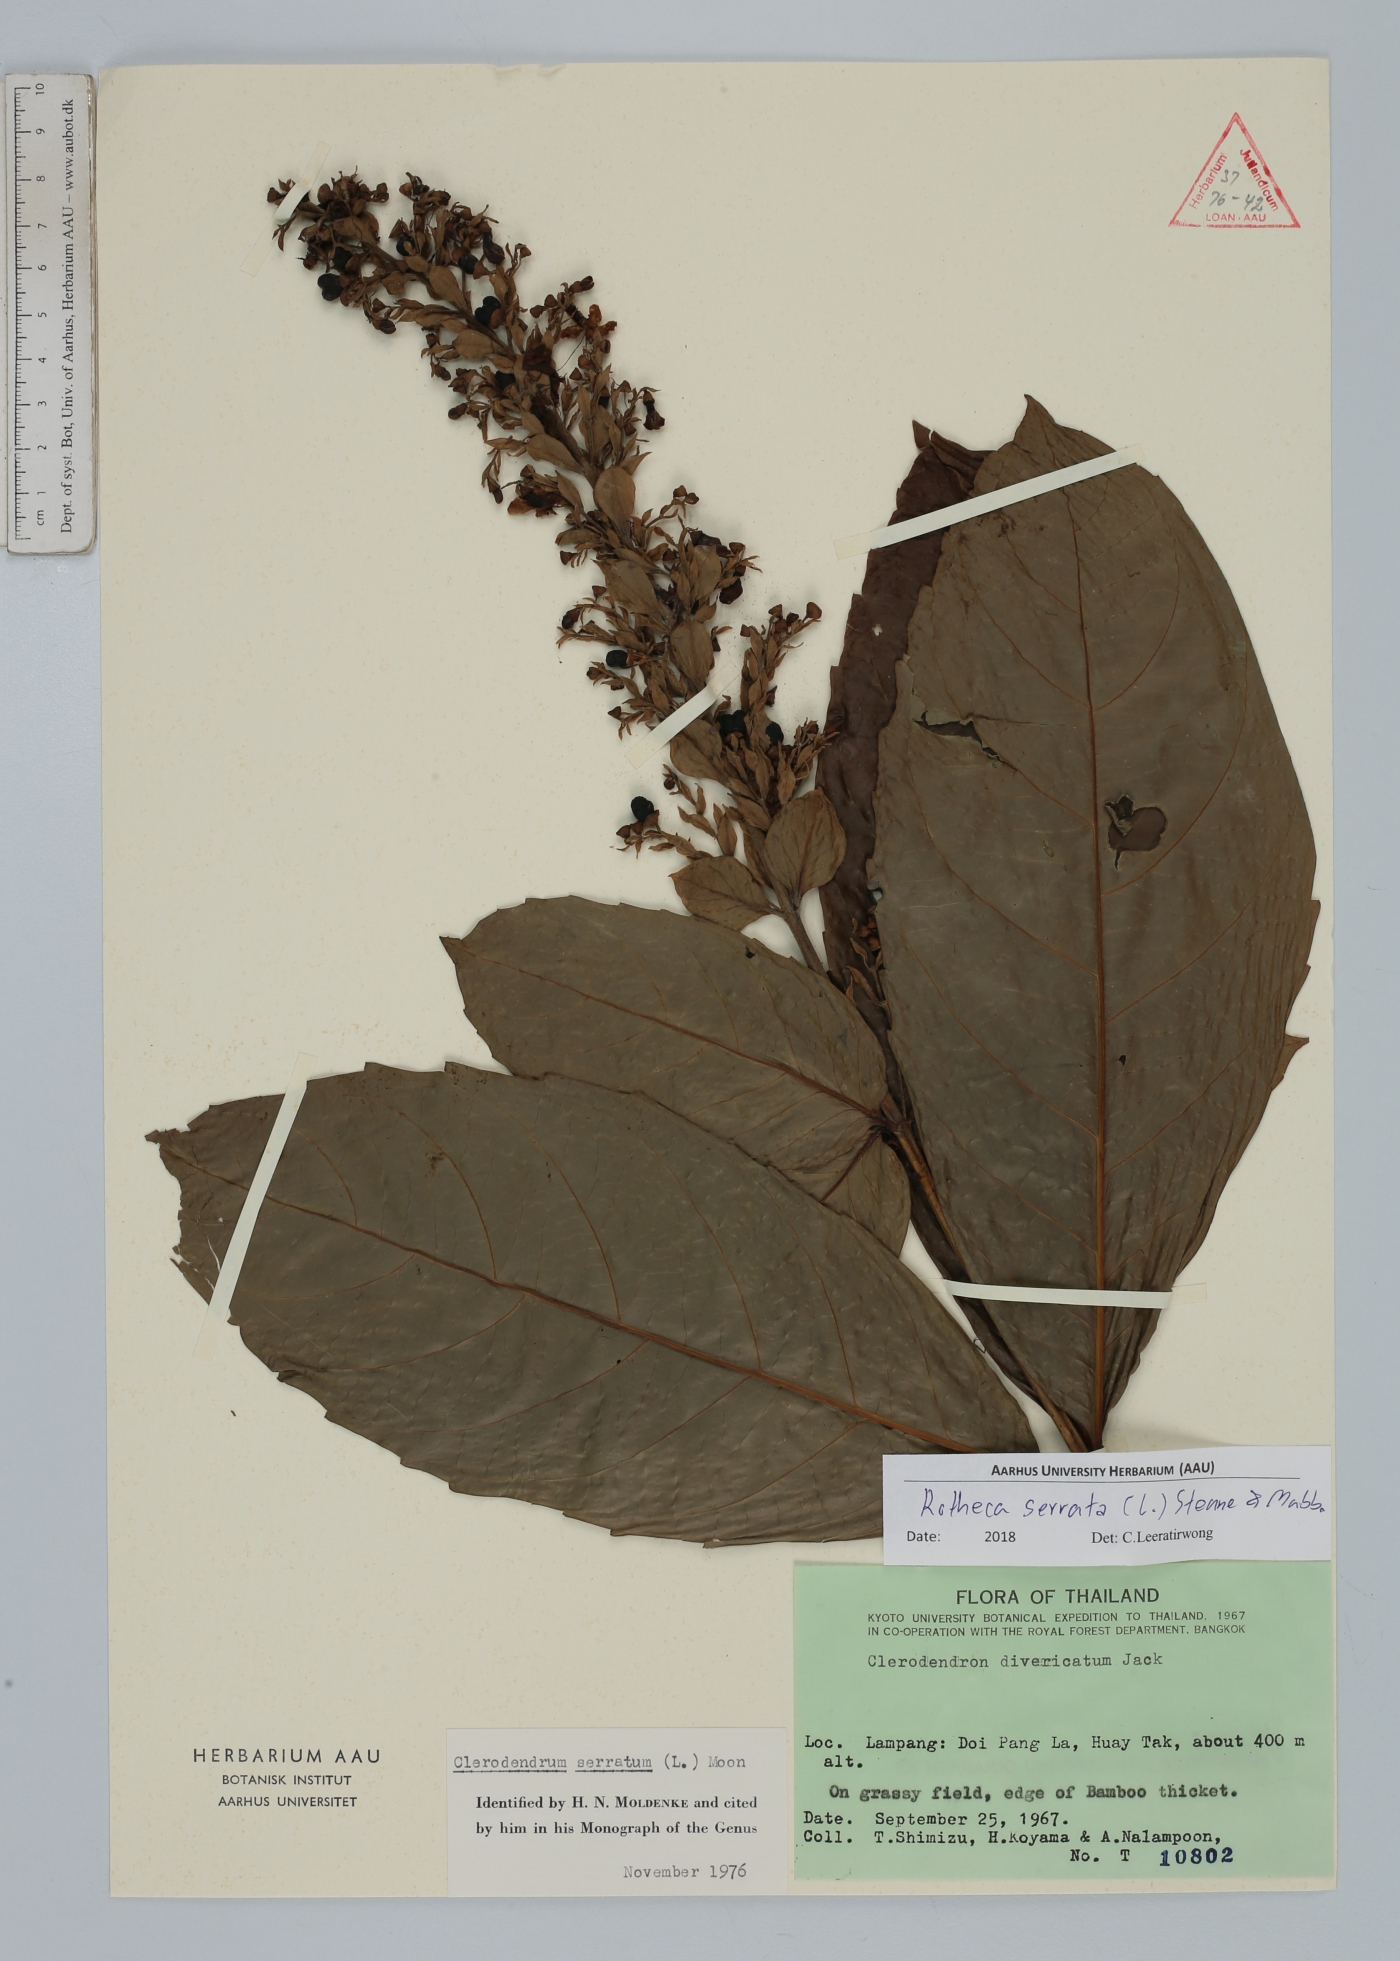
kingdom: Plantae
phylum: Tracheophyta
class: Magnoliopsida
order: Lamiales
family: Lamiaceae
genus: Rotheca
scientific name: Rotheca serrata
